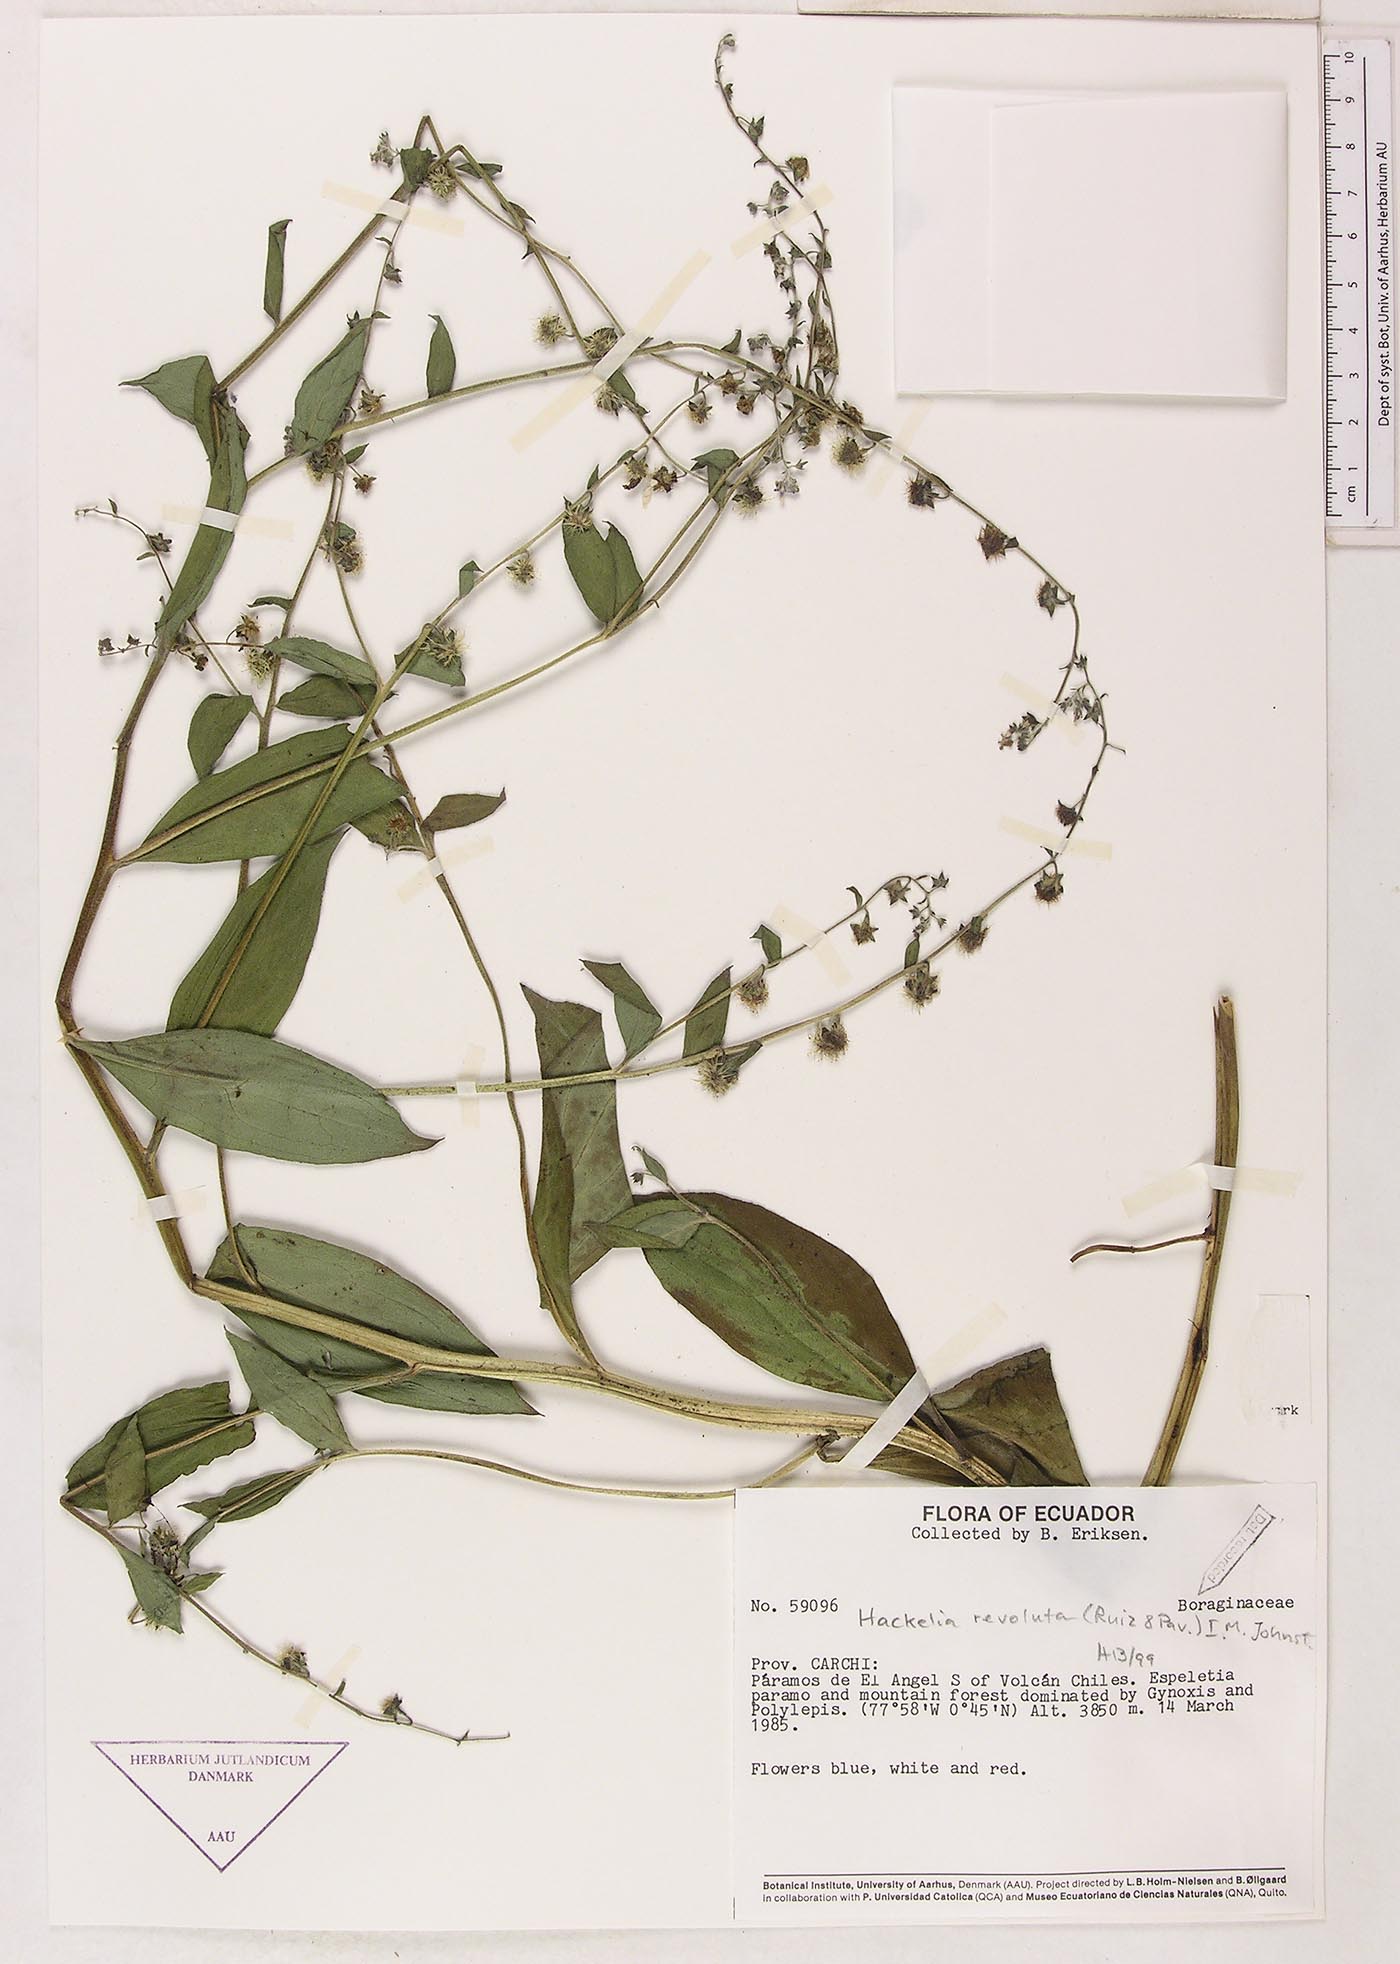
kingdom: Plantae
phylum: Tracheophyta
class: Magnoliopsida
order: Boraginales
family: Boraginaceae
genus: Hackelia
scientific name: Hackelia revoluta
